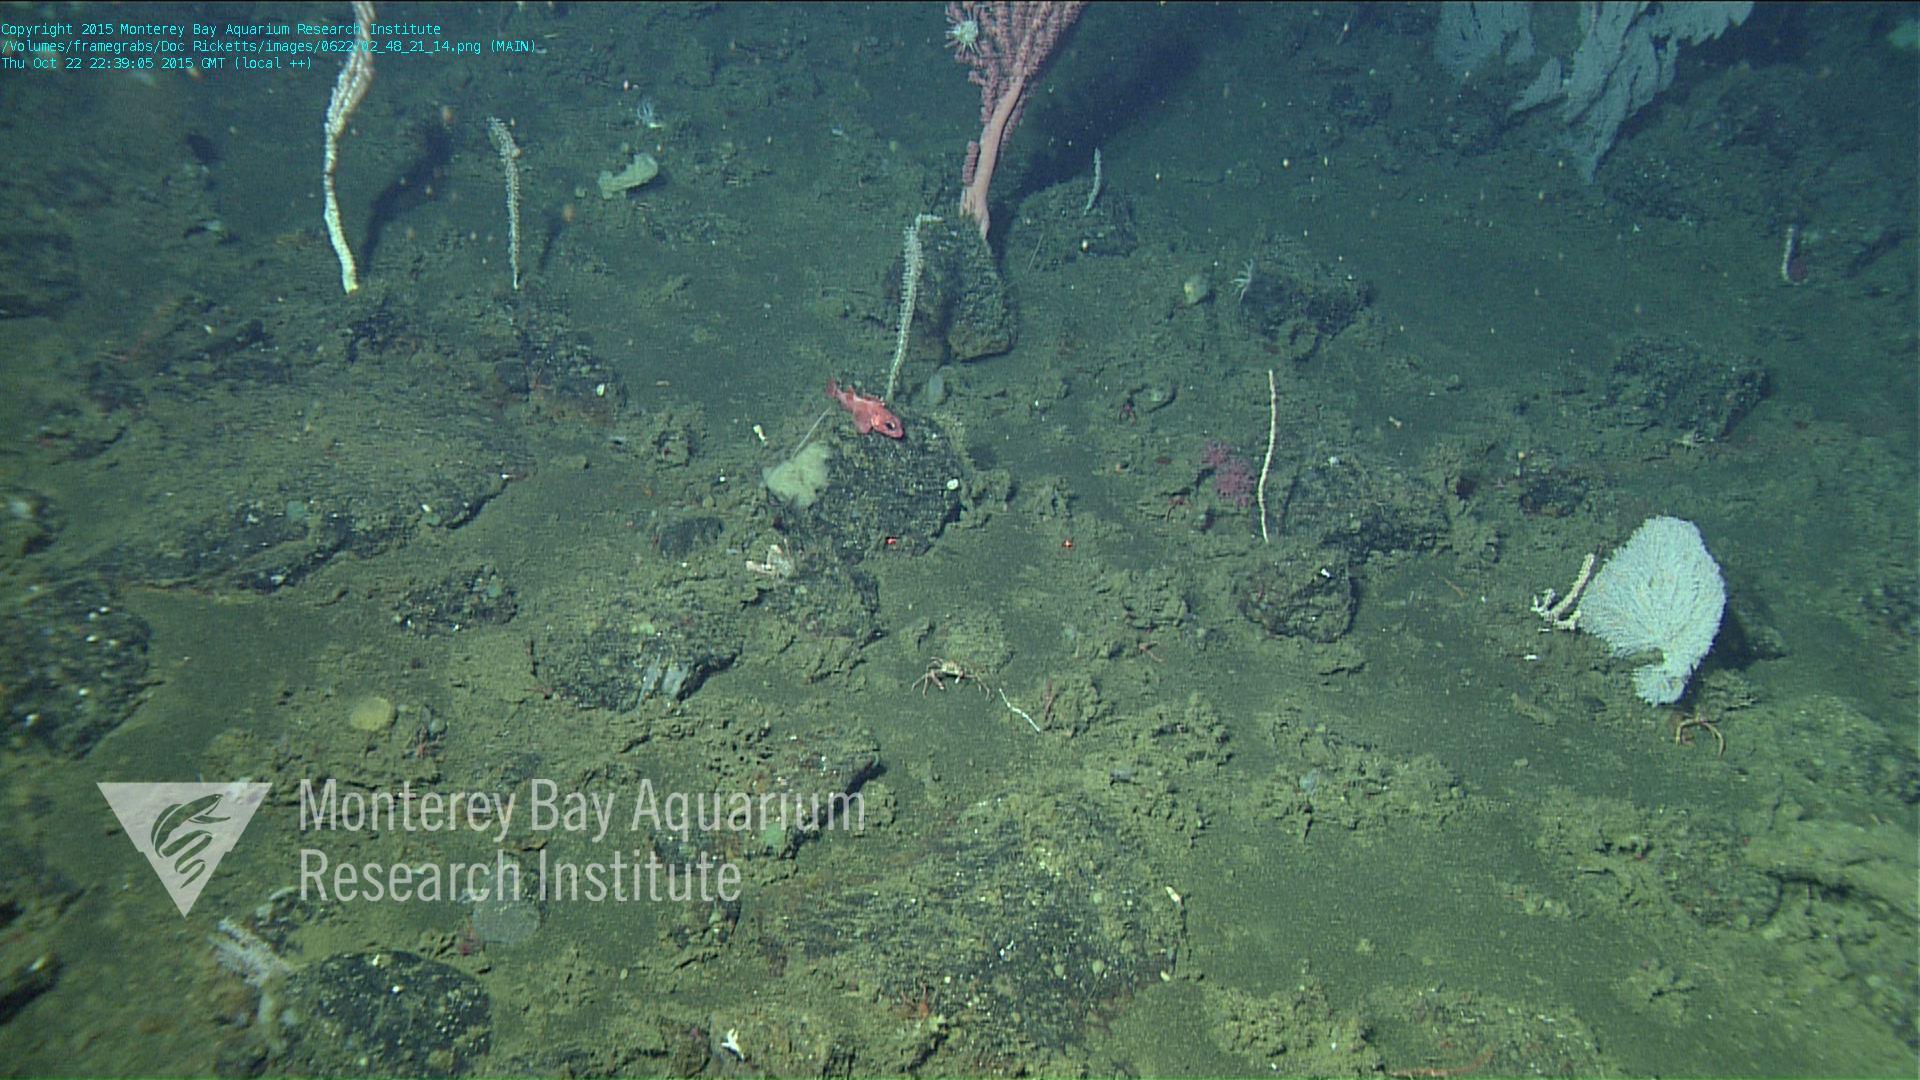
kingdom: Animalia
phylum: Cnidaria
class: Anthozoa
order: Scleralcyonacea
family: Primnoidae
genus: Parastenella
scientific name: Parastenella
